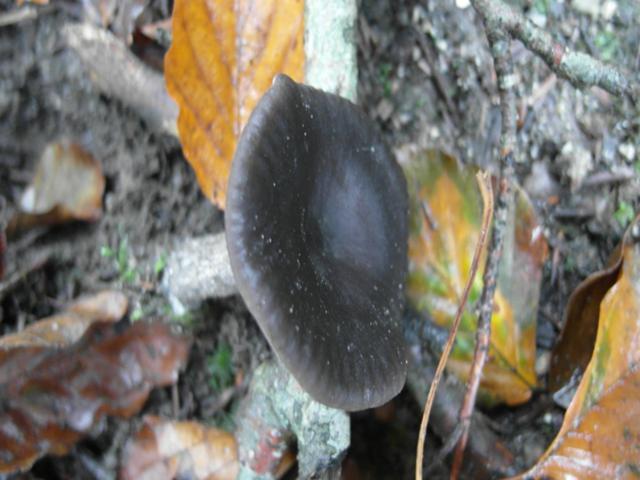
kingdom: Fungi
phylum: Basidiomycota
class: Agaricomycetes
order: Agaricales
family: Pseudoclitocybaceae
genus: Pseudoclitocybe
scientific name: Pseudoclitocybe cyathiformis
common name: almindelig bægertragthat
